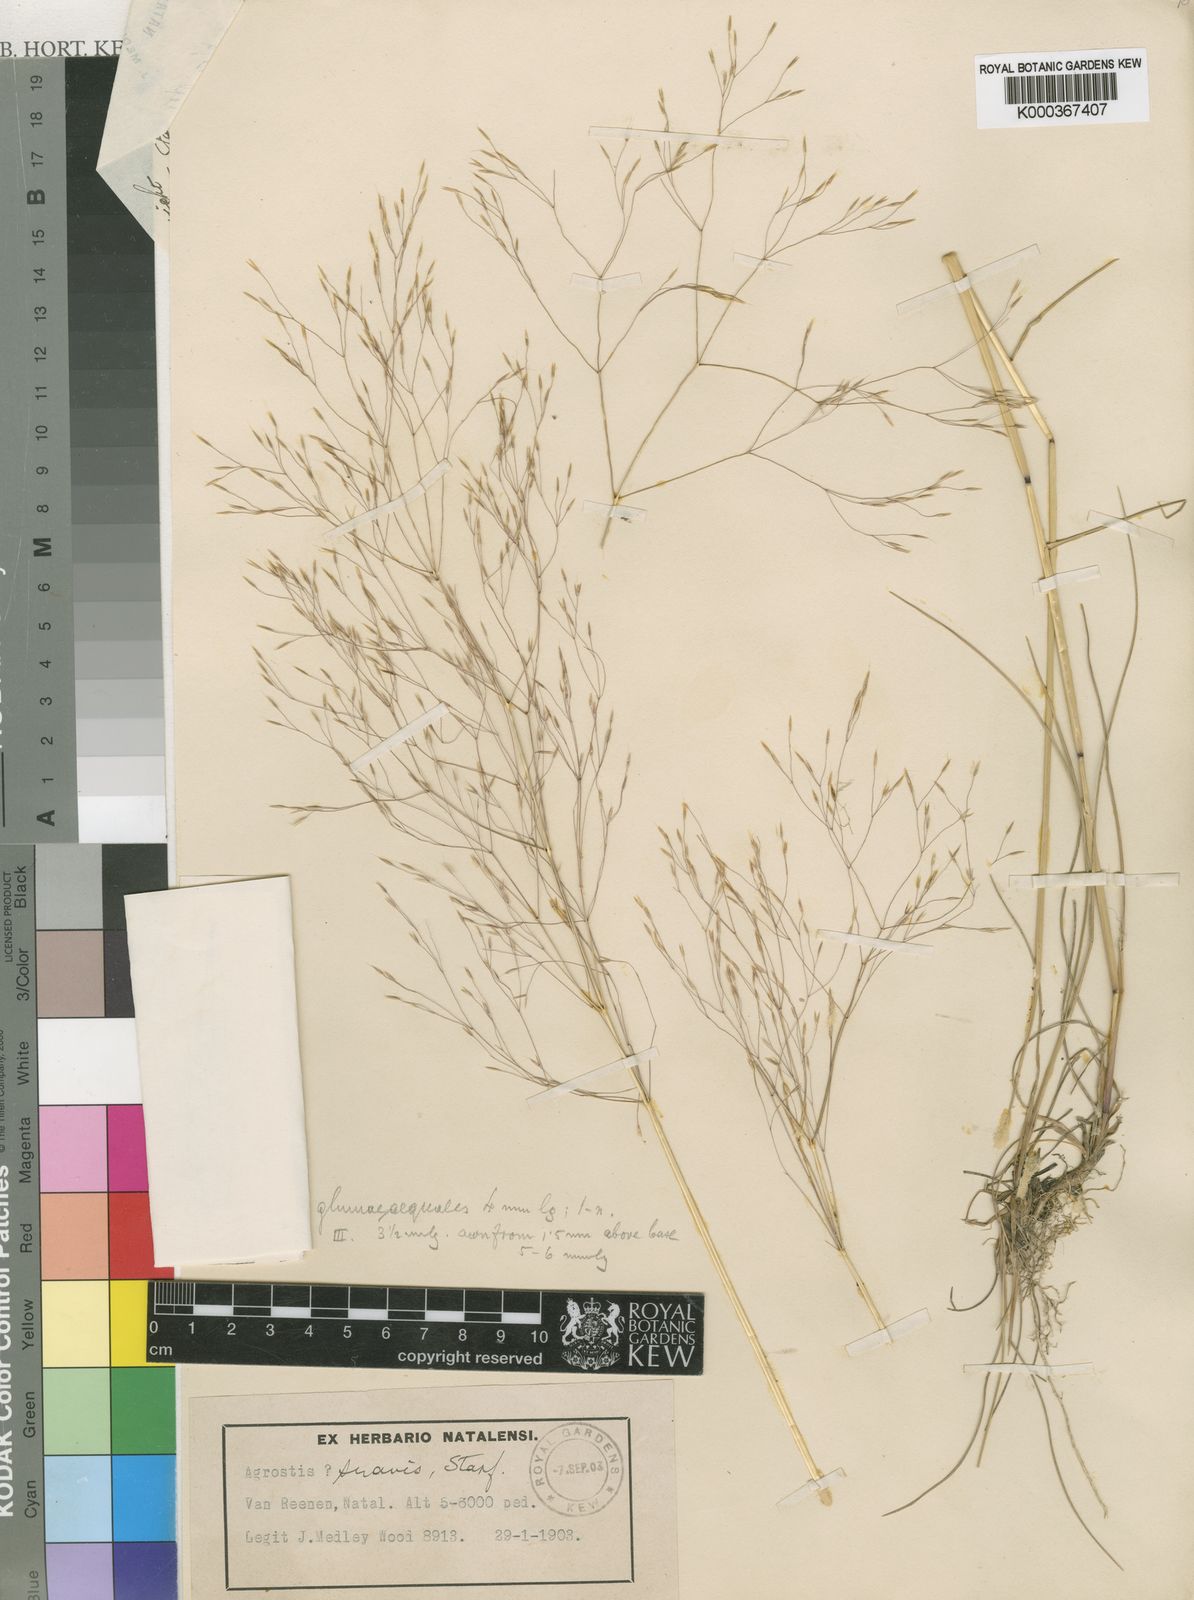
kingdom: Plantae
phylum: Tracheophyta
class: Liliopsida
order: Poales
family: Poaceae
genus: Lachnagrostis
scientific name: Lachnagrostis eriantha
